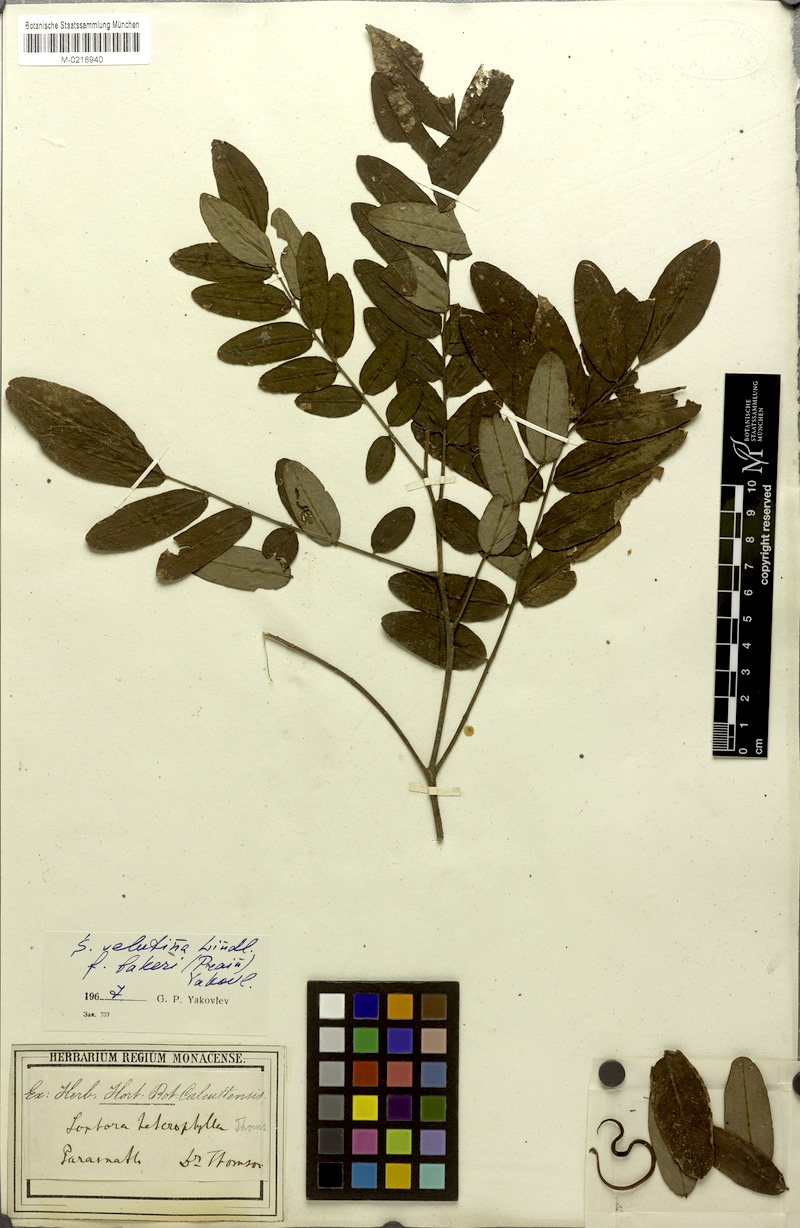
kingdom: Plantae
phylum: Tracheophyta
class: Magnoliopsida
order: Fabales
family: Fabaceae
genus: Sophora
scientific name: Sophora velutina
